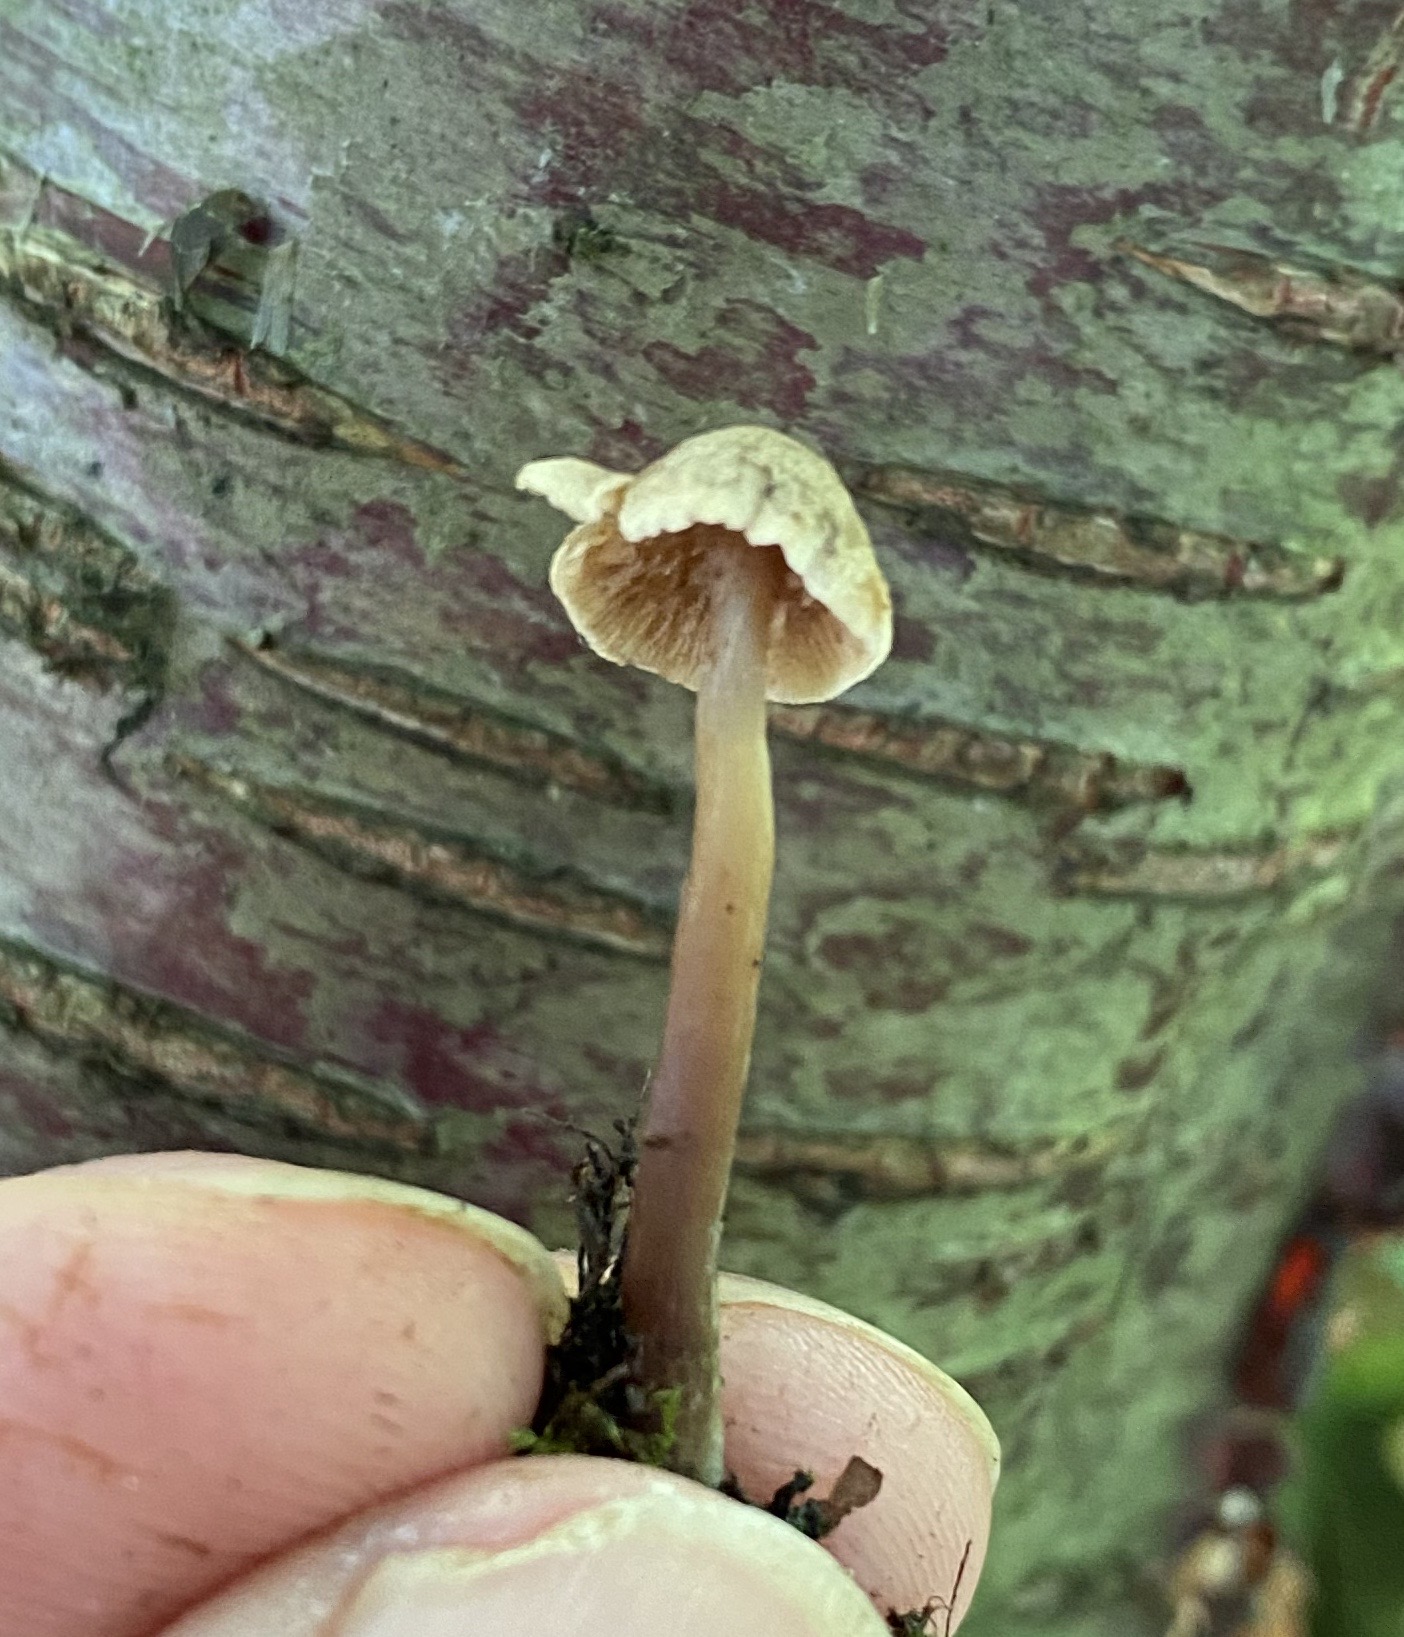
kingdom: Fungi
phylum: Basidiomycota
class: Agaricomycetes
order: Agaricales
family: Hymenogastraceae
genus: Naucoria
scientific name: Naucoria
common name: knaphat
